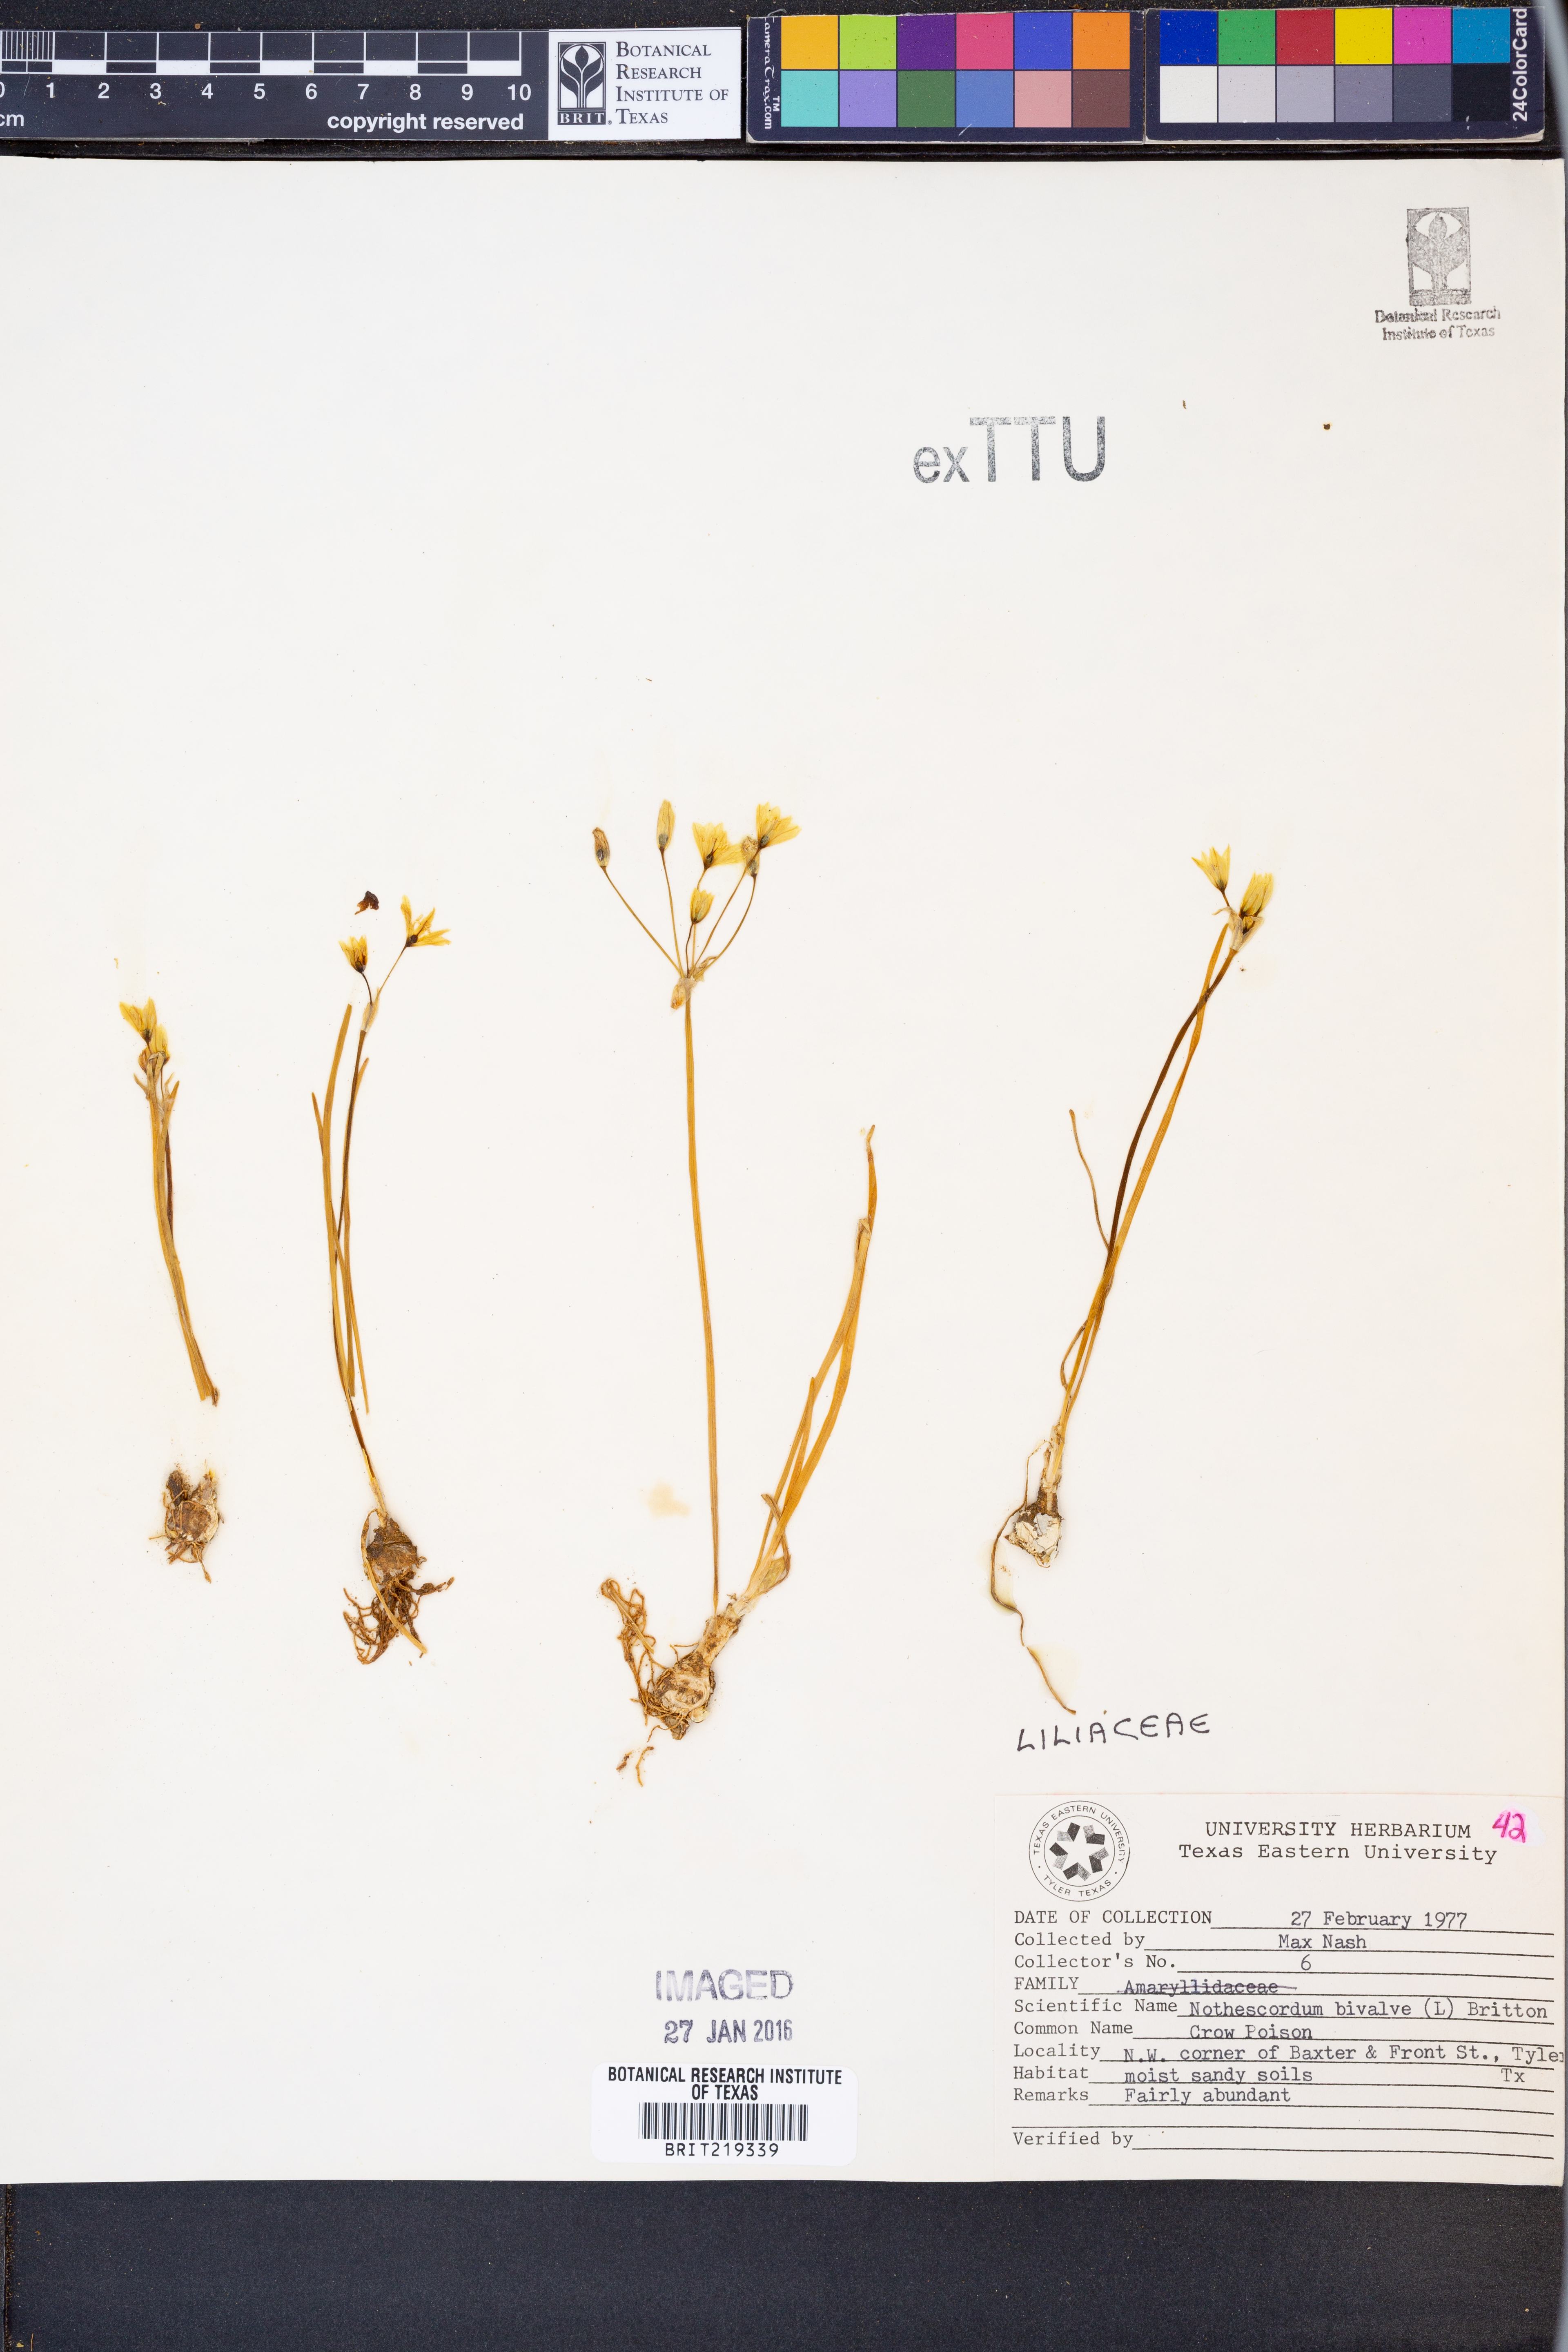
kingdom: Plantae
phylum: Tracheophyta
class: Liliopsida
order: Asparagales
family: Amaryllidaceae
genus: Nothoscordum
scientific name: Nothoscordum bivalve
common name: Crow-poison
